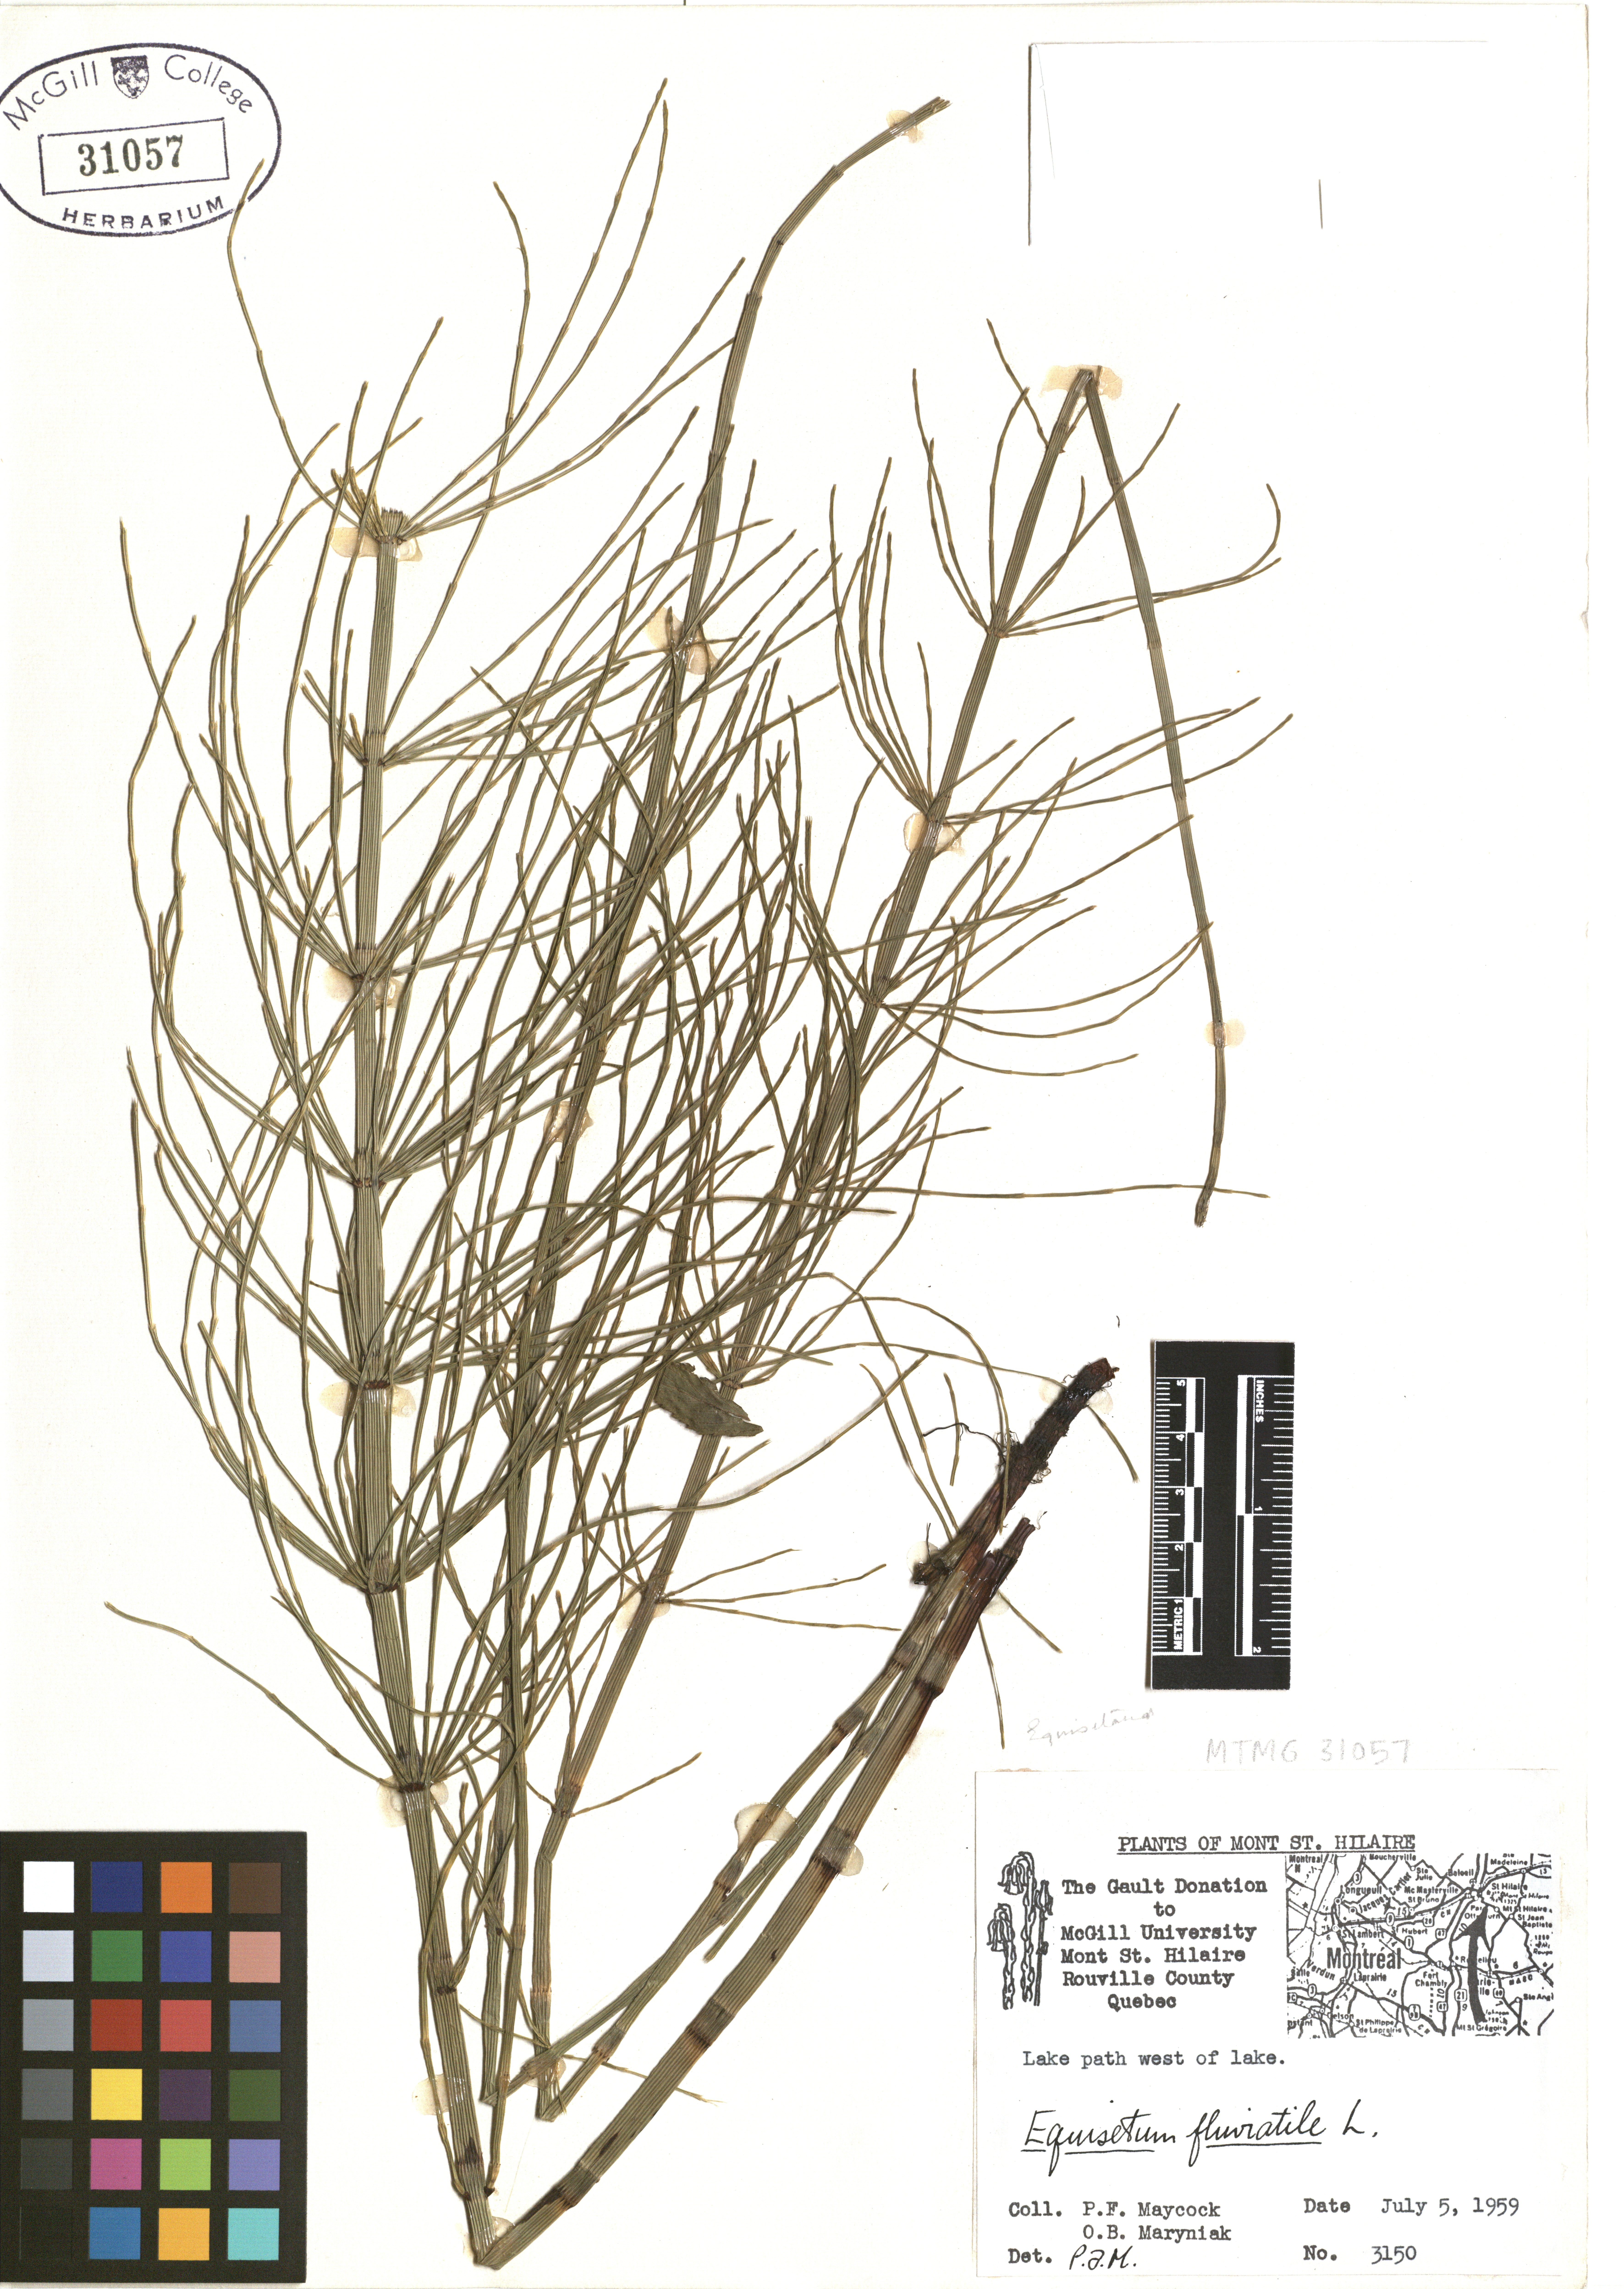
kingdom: Plantae
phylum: Tracheophyta
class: Polypodiopsida
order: Equisetales
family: Equisetaceae
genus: Equisetum
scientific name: Equisetum fluviatile
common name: Water horsetail
